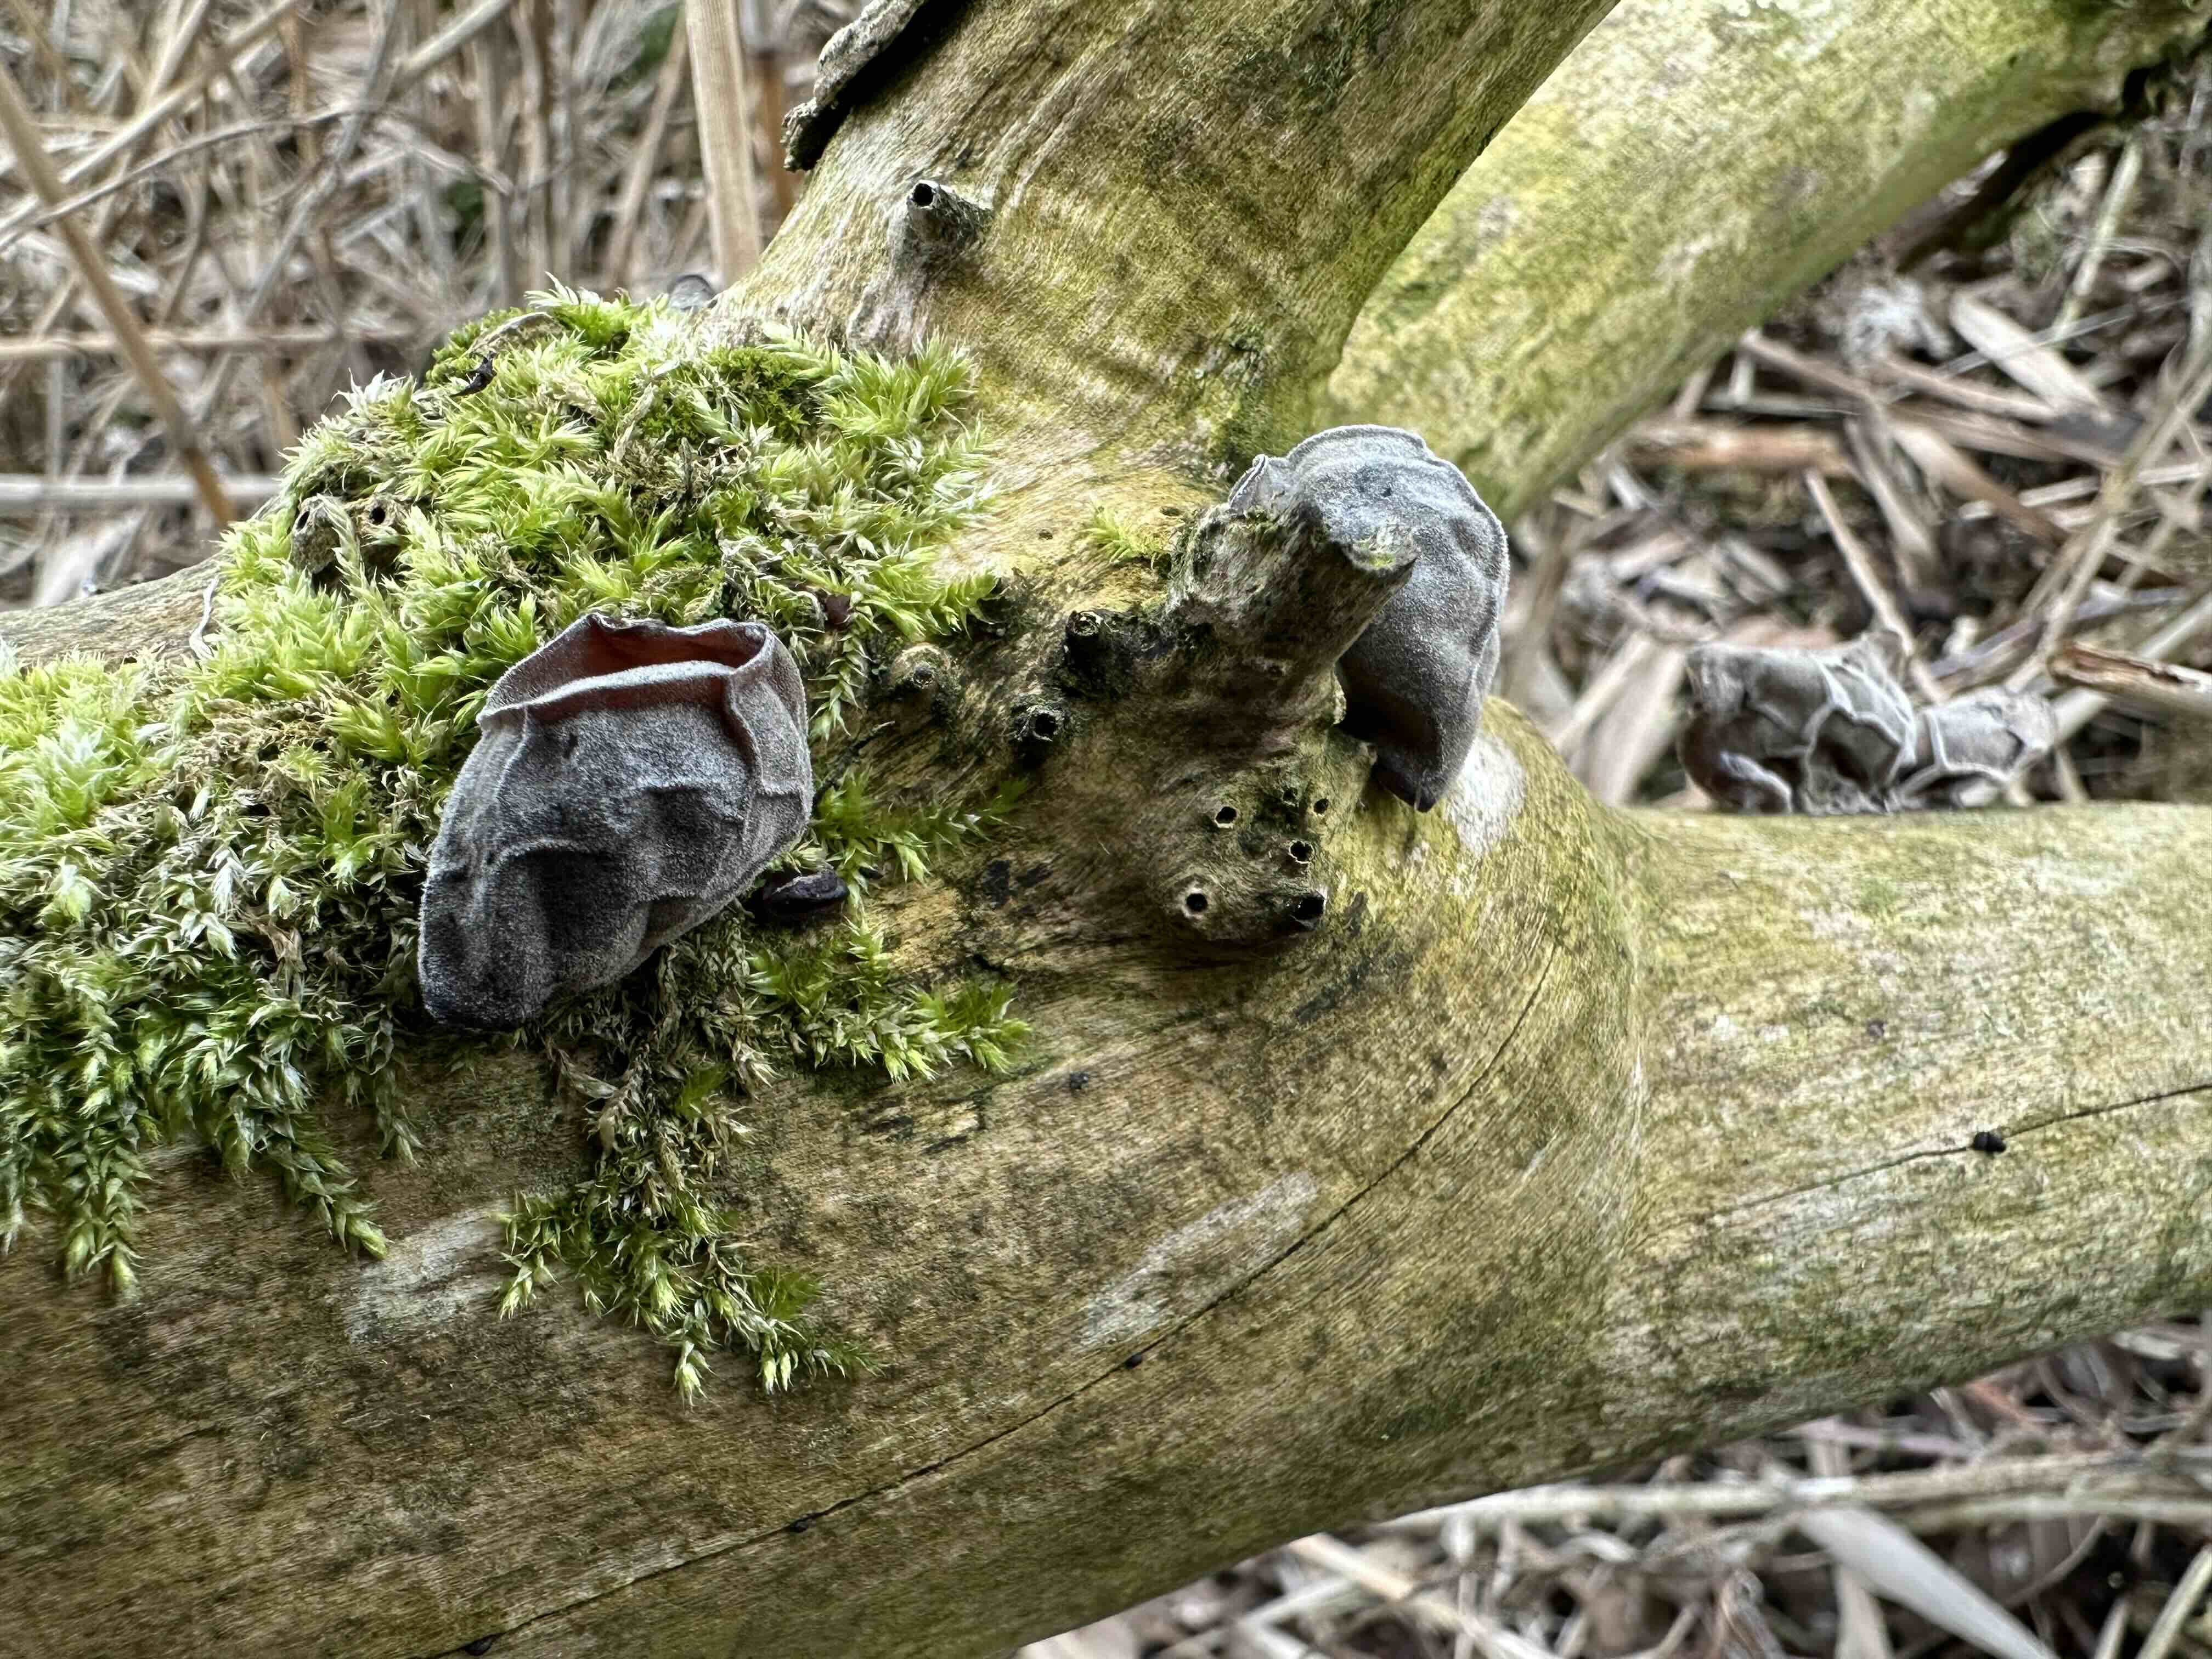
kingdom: Fungi
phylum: Basidiomycota
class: Agaricomycetes
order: Auriculariales
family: Auriculariaceae
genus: Auricularia
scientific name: Auricularia auricula-judae
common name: almindelig judasøre
